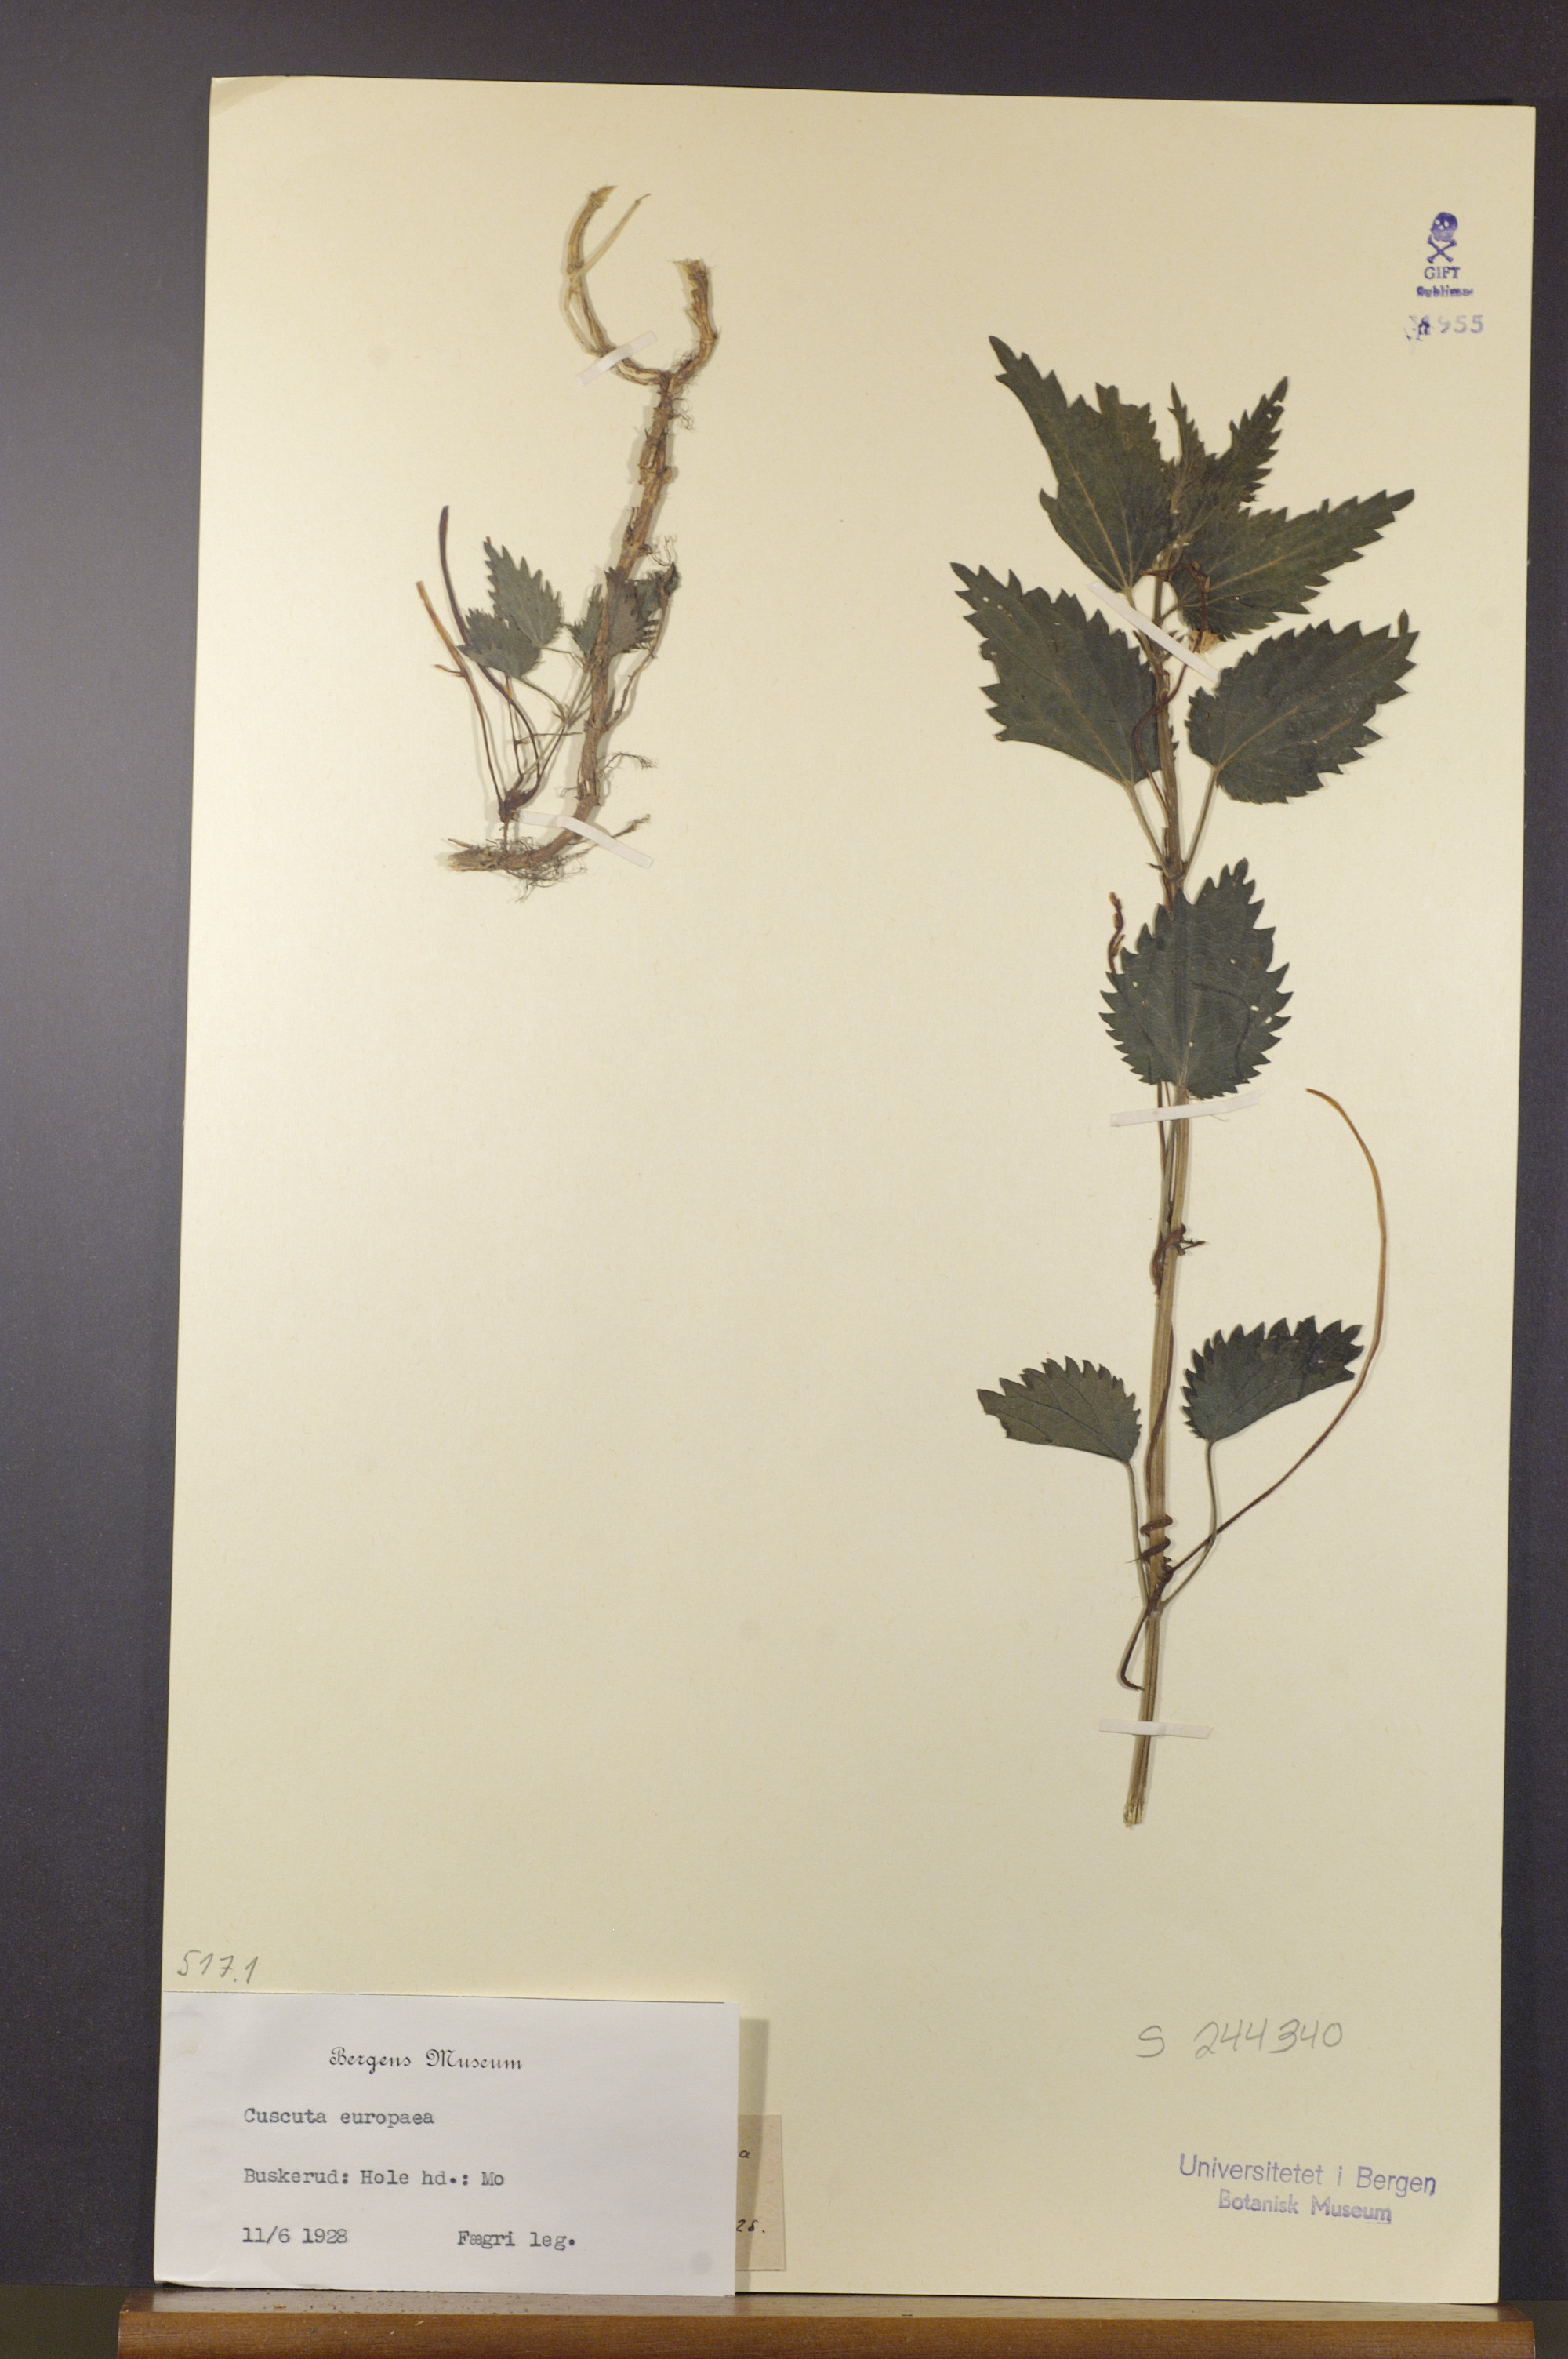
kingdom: Plantae
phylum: Tracheophyta
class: Magnoliopsida
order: Solanales
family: Convolvulaceae
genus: Cuscuta
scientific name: Cuscuta europaea
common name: Greater dodder
